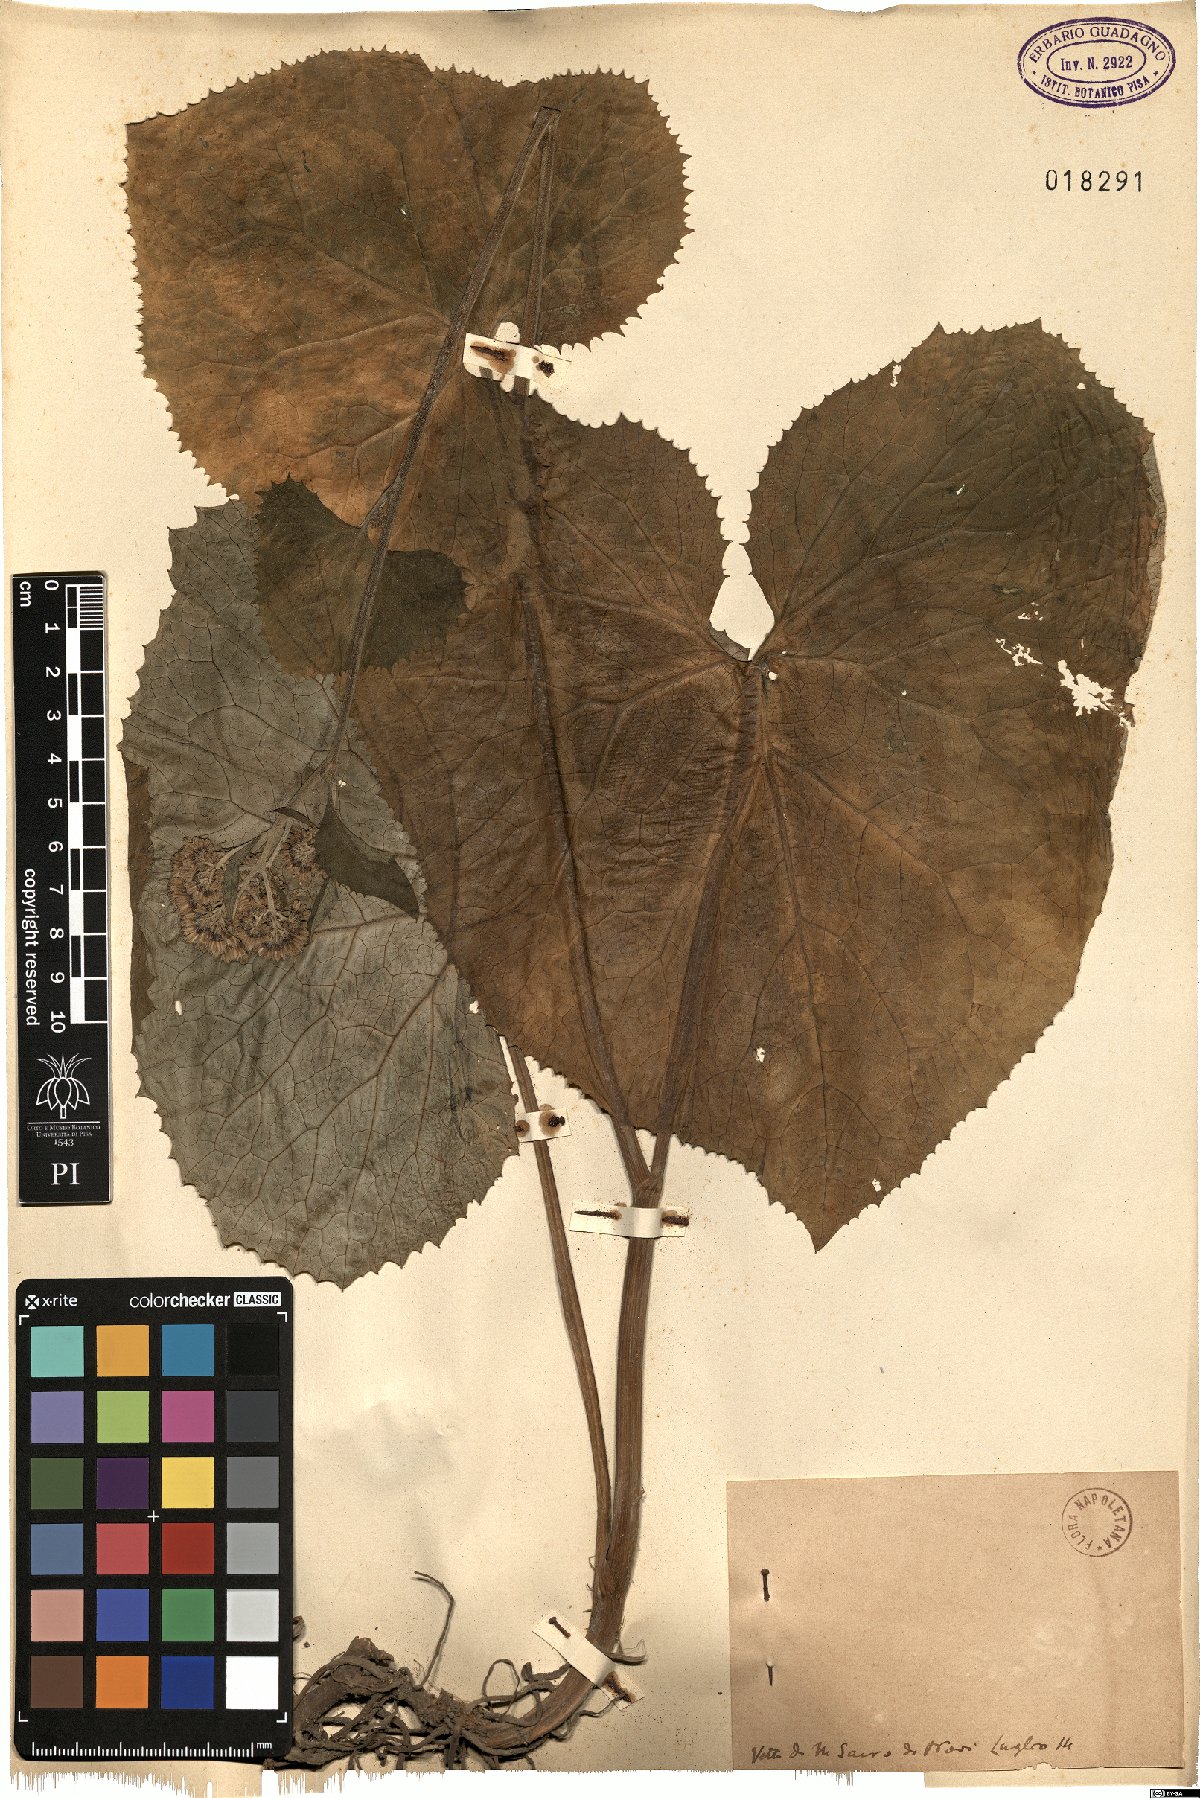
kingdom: Plantae
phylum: Tracheophyta
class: Magnoliopsida
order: Asterales
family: Asteraceae
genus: Adenostyles
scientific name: Adenostyles
